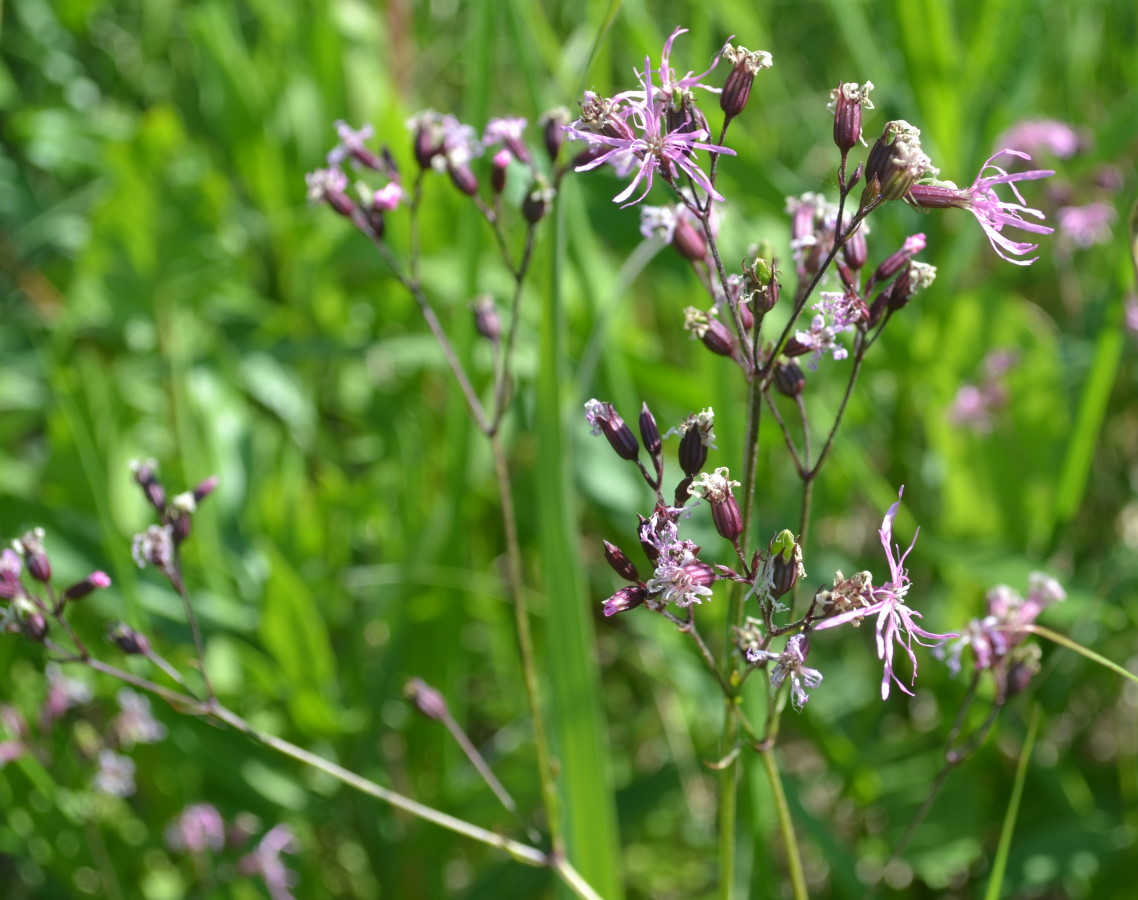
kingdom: Plantae
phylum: Tracheophyta
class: Magnoliopsida
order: Caryophyllales
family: Caryophyllaceae
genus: Silene
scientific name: Silene flos-cuculi
